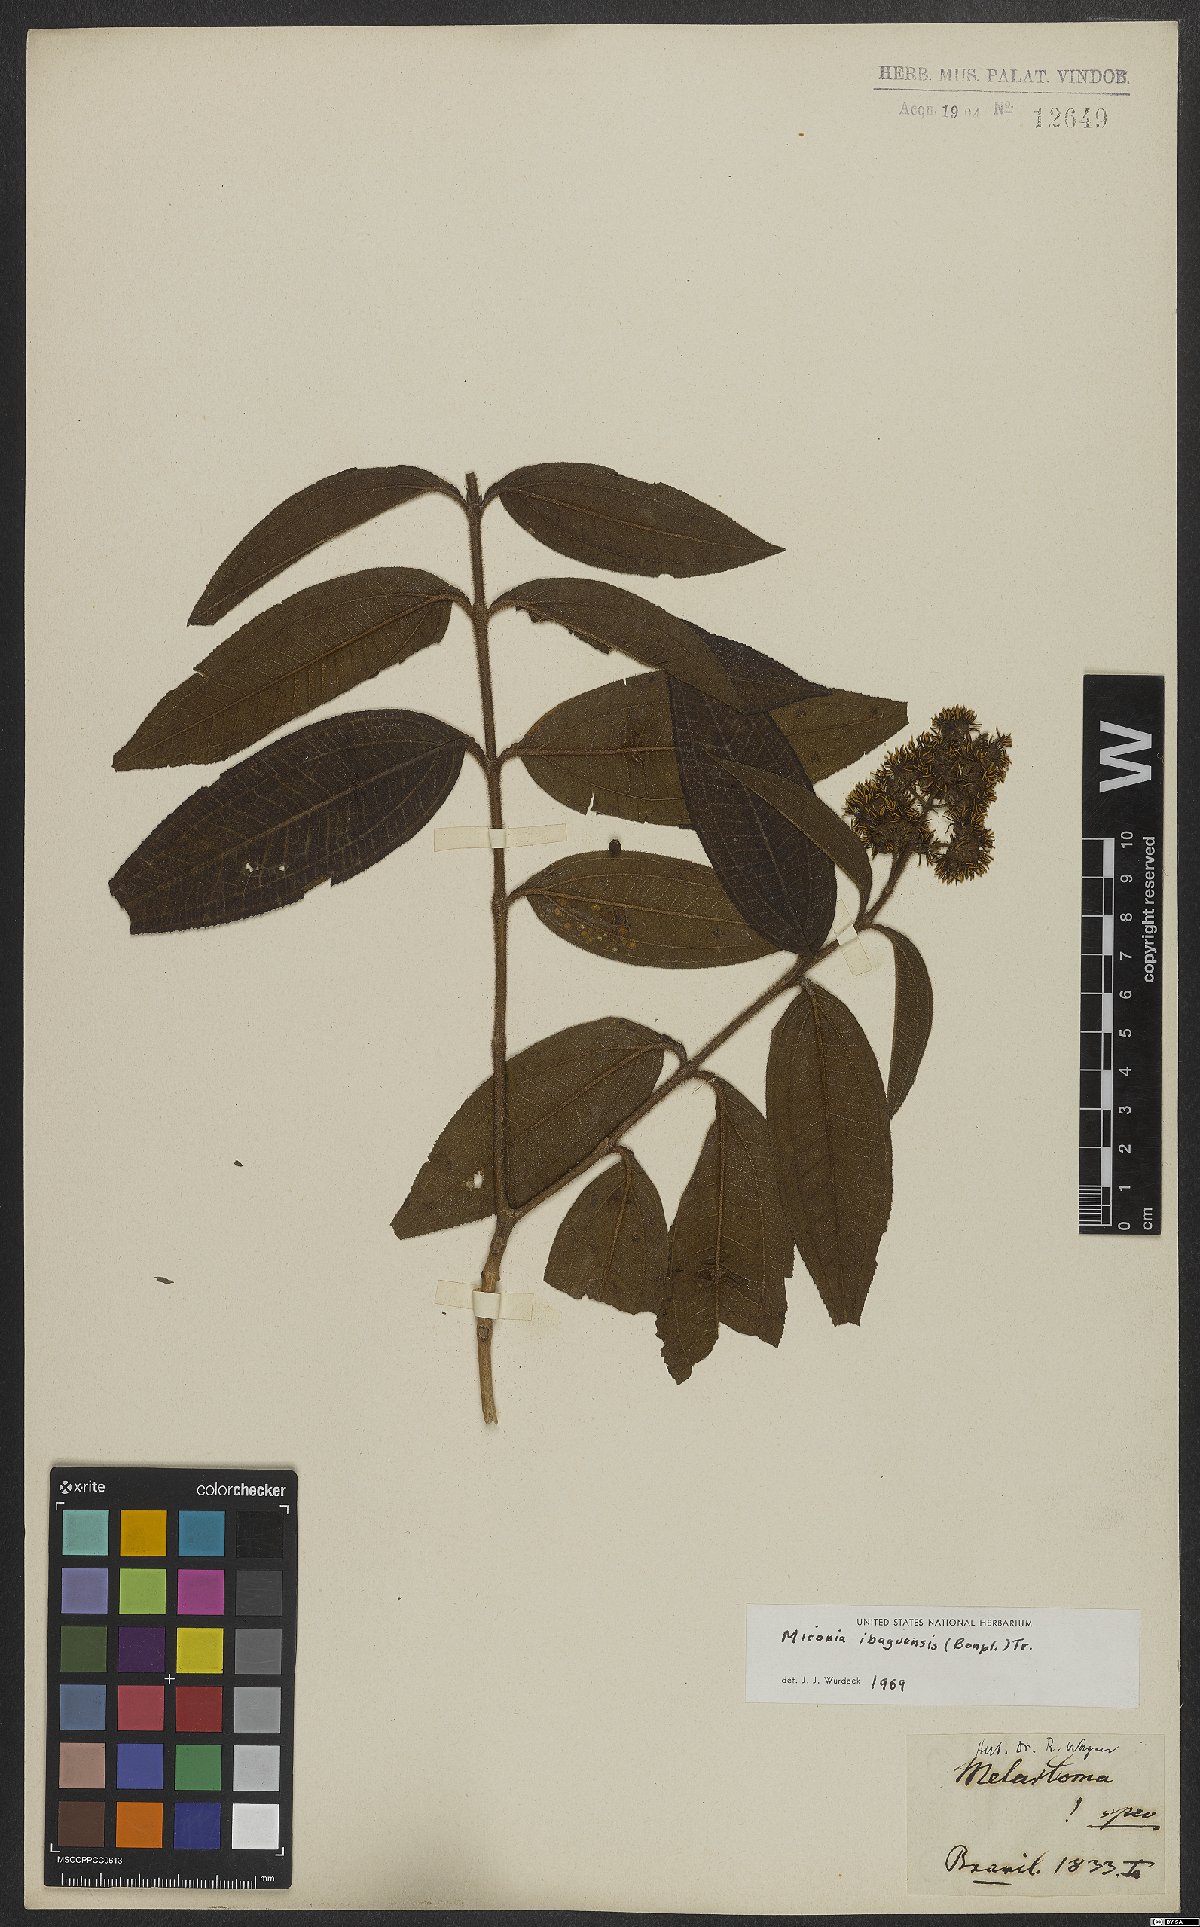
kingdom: Plantae
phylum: Tracheophyta
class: Magnoliopsida
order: Myrtales
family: Melastomataceae
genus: Miconia
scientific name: Miconia ibaguensis
